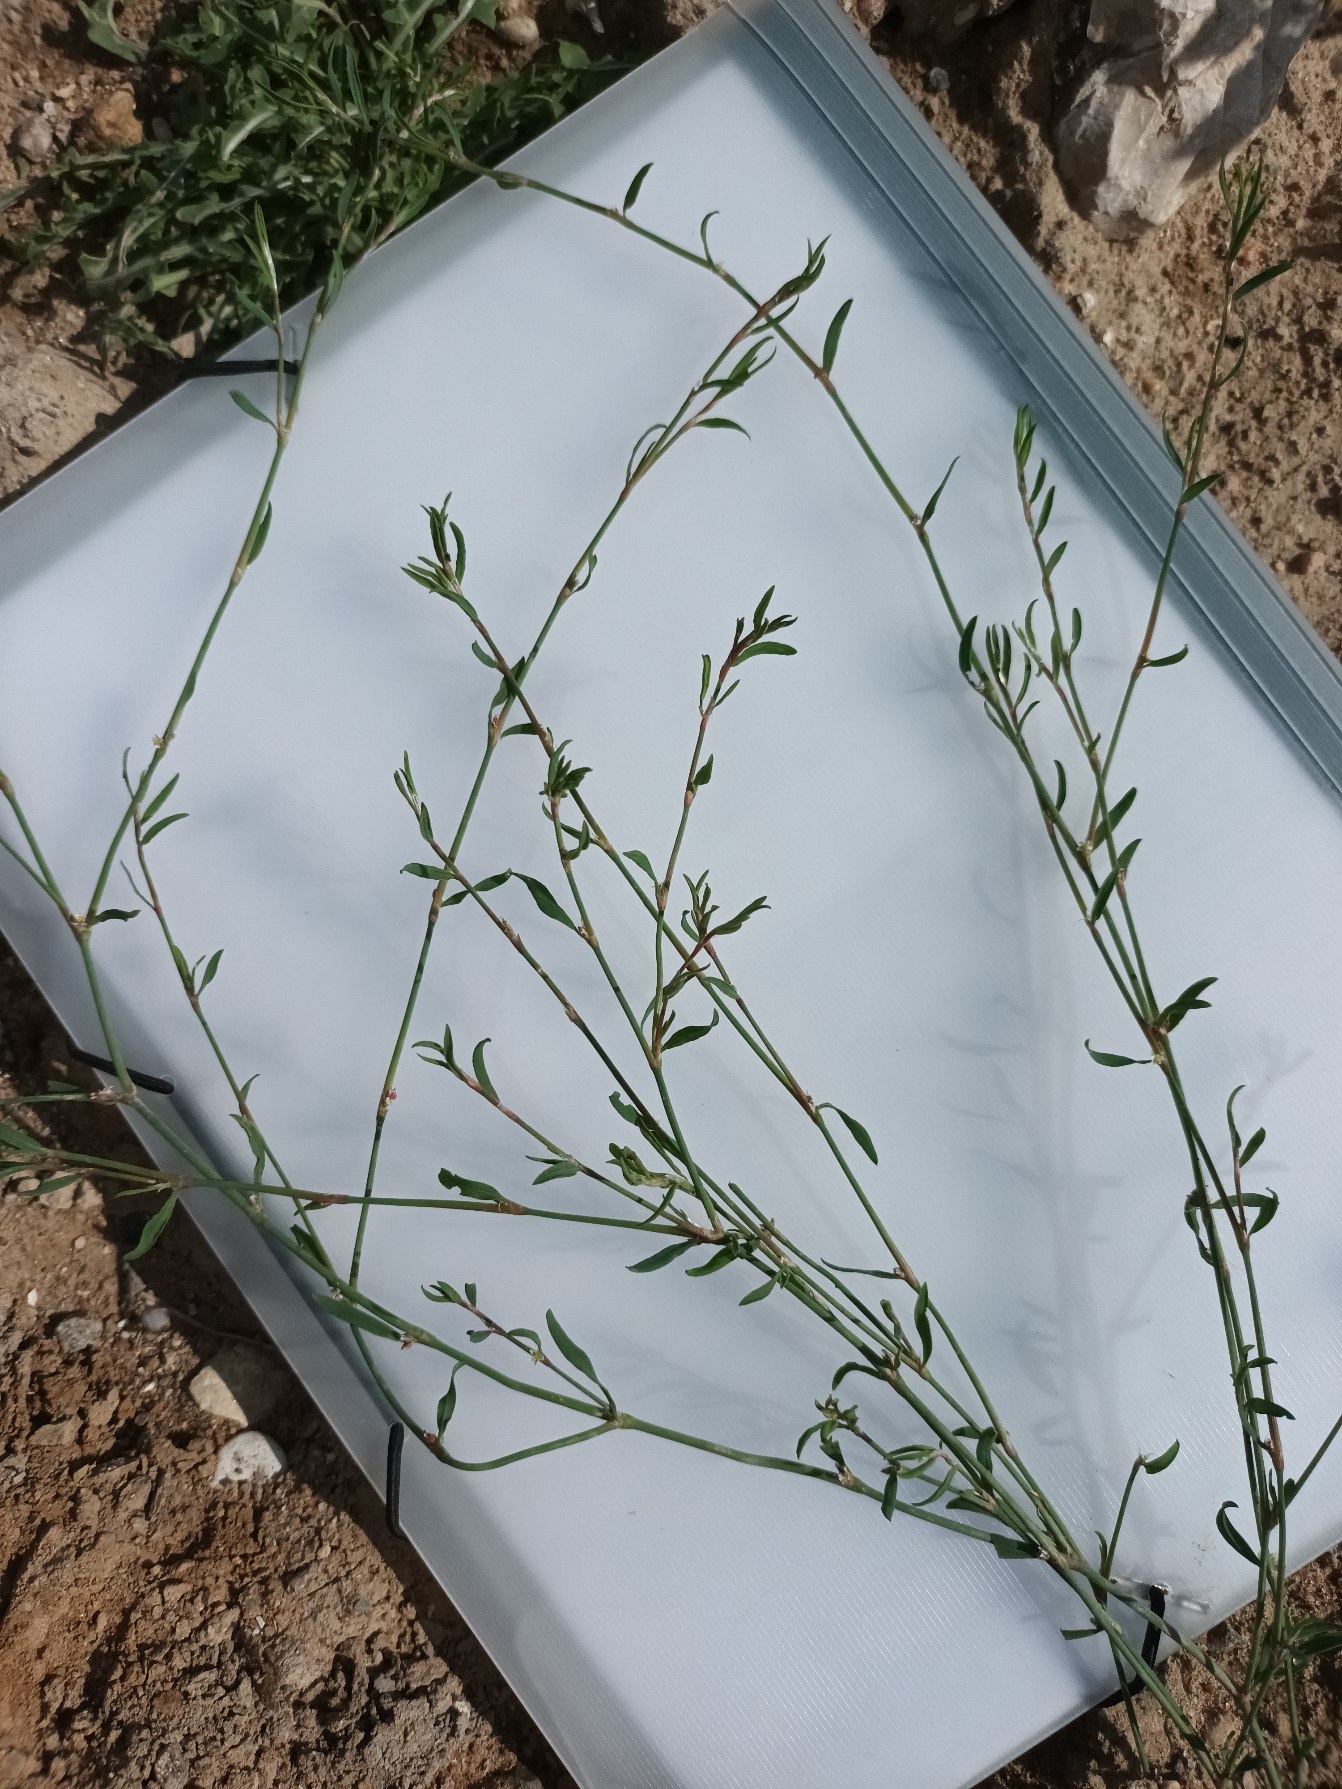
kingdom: Plantae
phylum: Tracheophyta
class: Magnoliopsida
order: Caryophyllales
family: Polygonaceae
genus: Polygonum
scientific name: Polygonum aviculare
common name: Spidsbladet vej-pileurt
